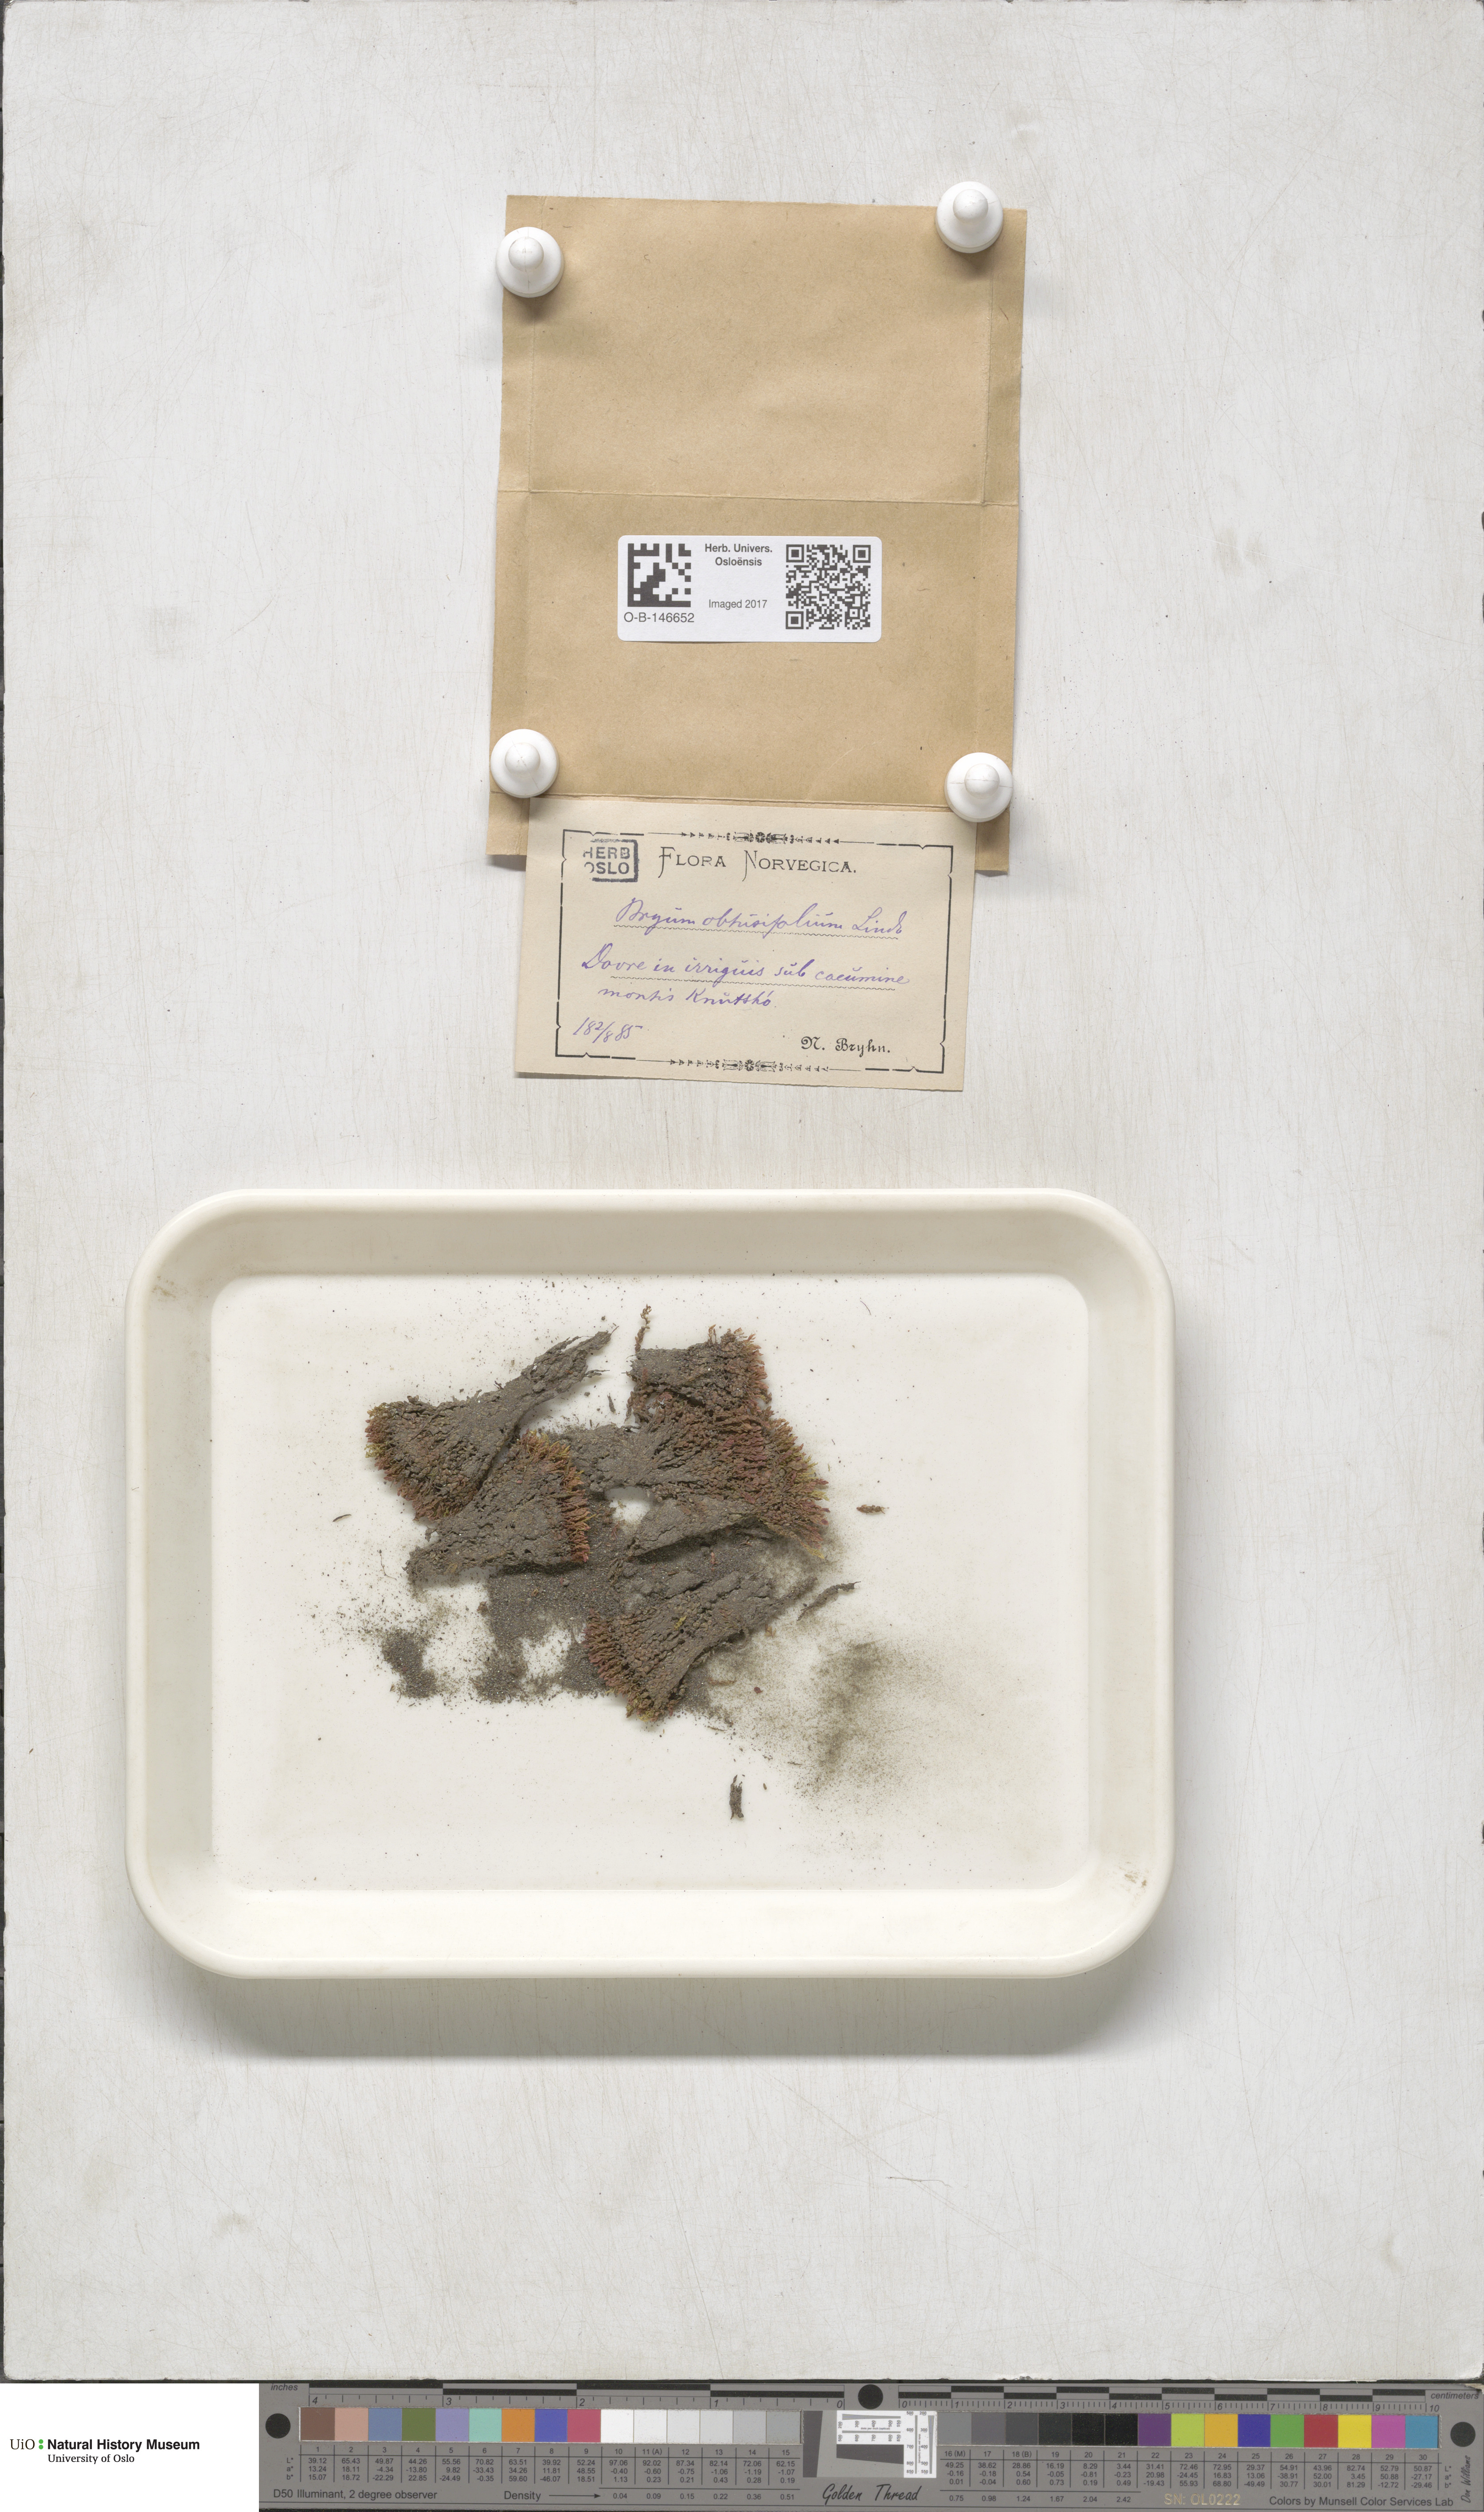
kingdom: Plantae
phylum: Bryophyta
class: Bryopsida
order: Bryales
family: Mniaceae
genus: Pohlia
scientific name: Pohlia obtusifolia
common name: Blunt nodding moss
